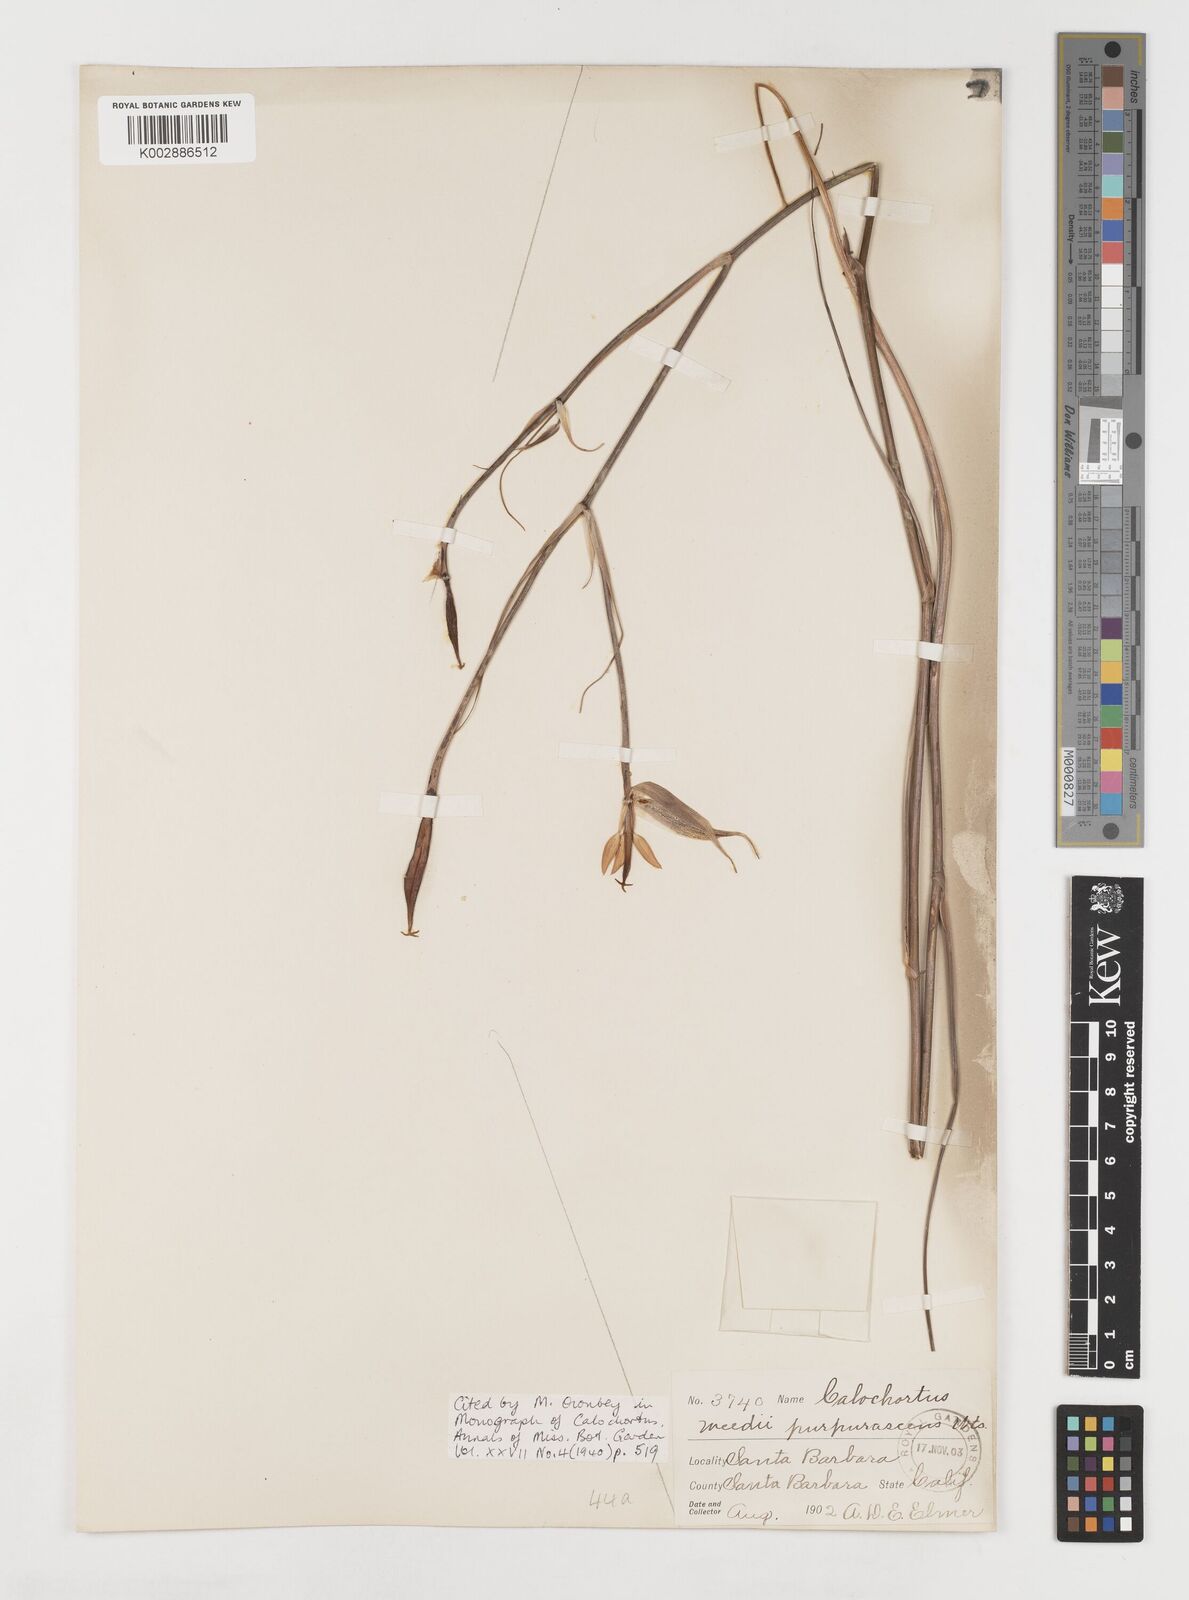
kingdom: Plantae
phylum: Tracheophyta
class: Liliopsida
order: Liliales
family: Liliaceae
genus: Calochortus
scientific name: Calochortus fimbriatus
